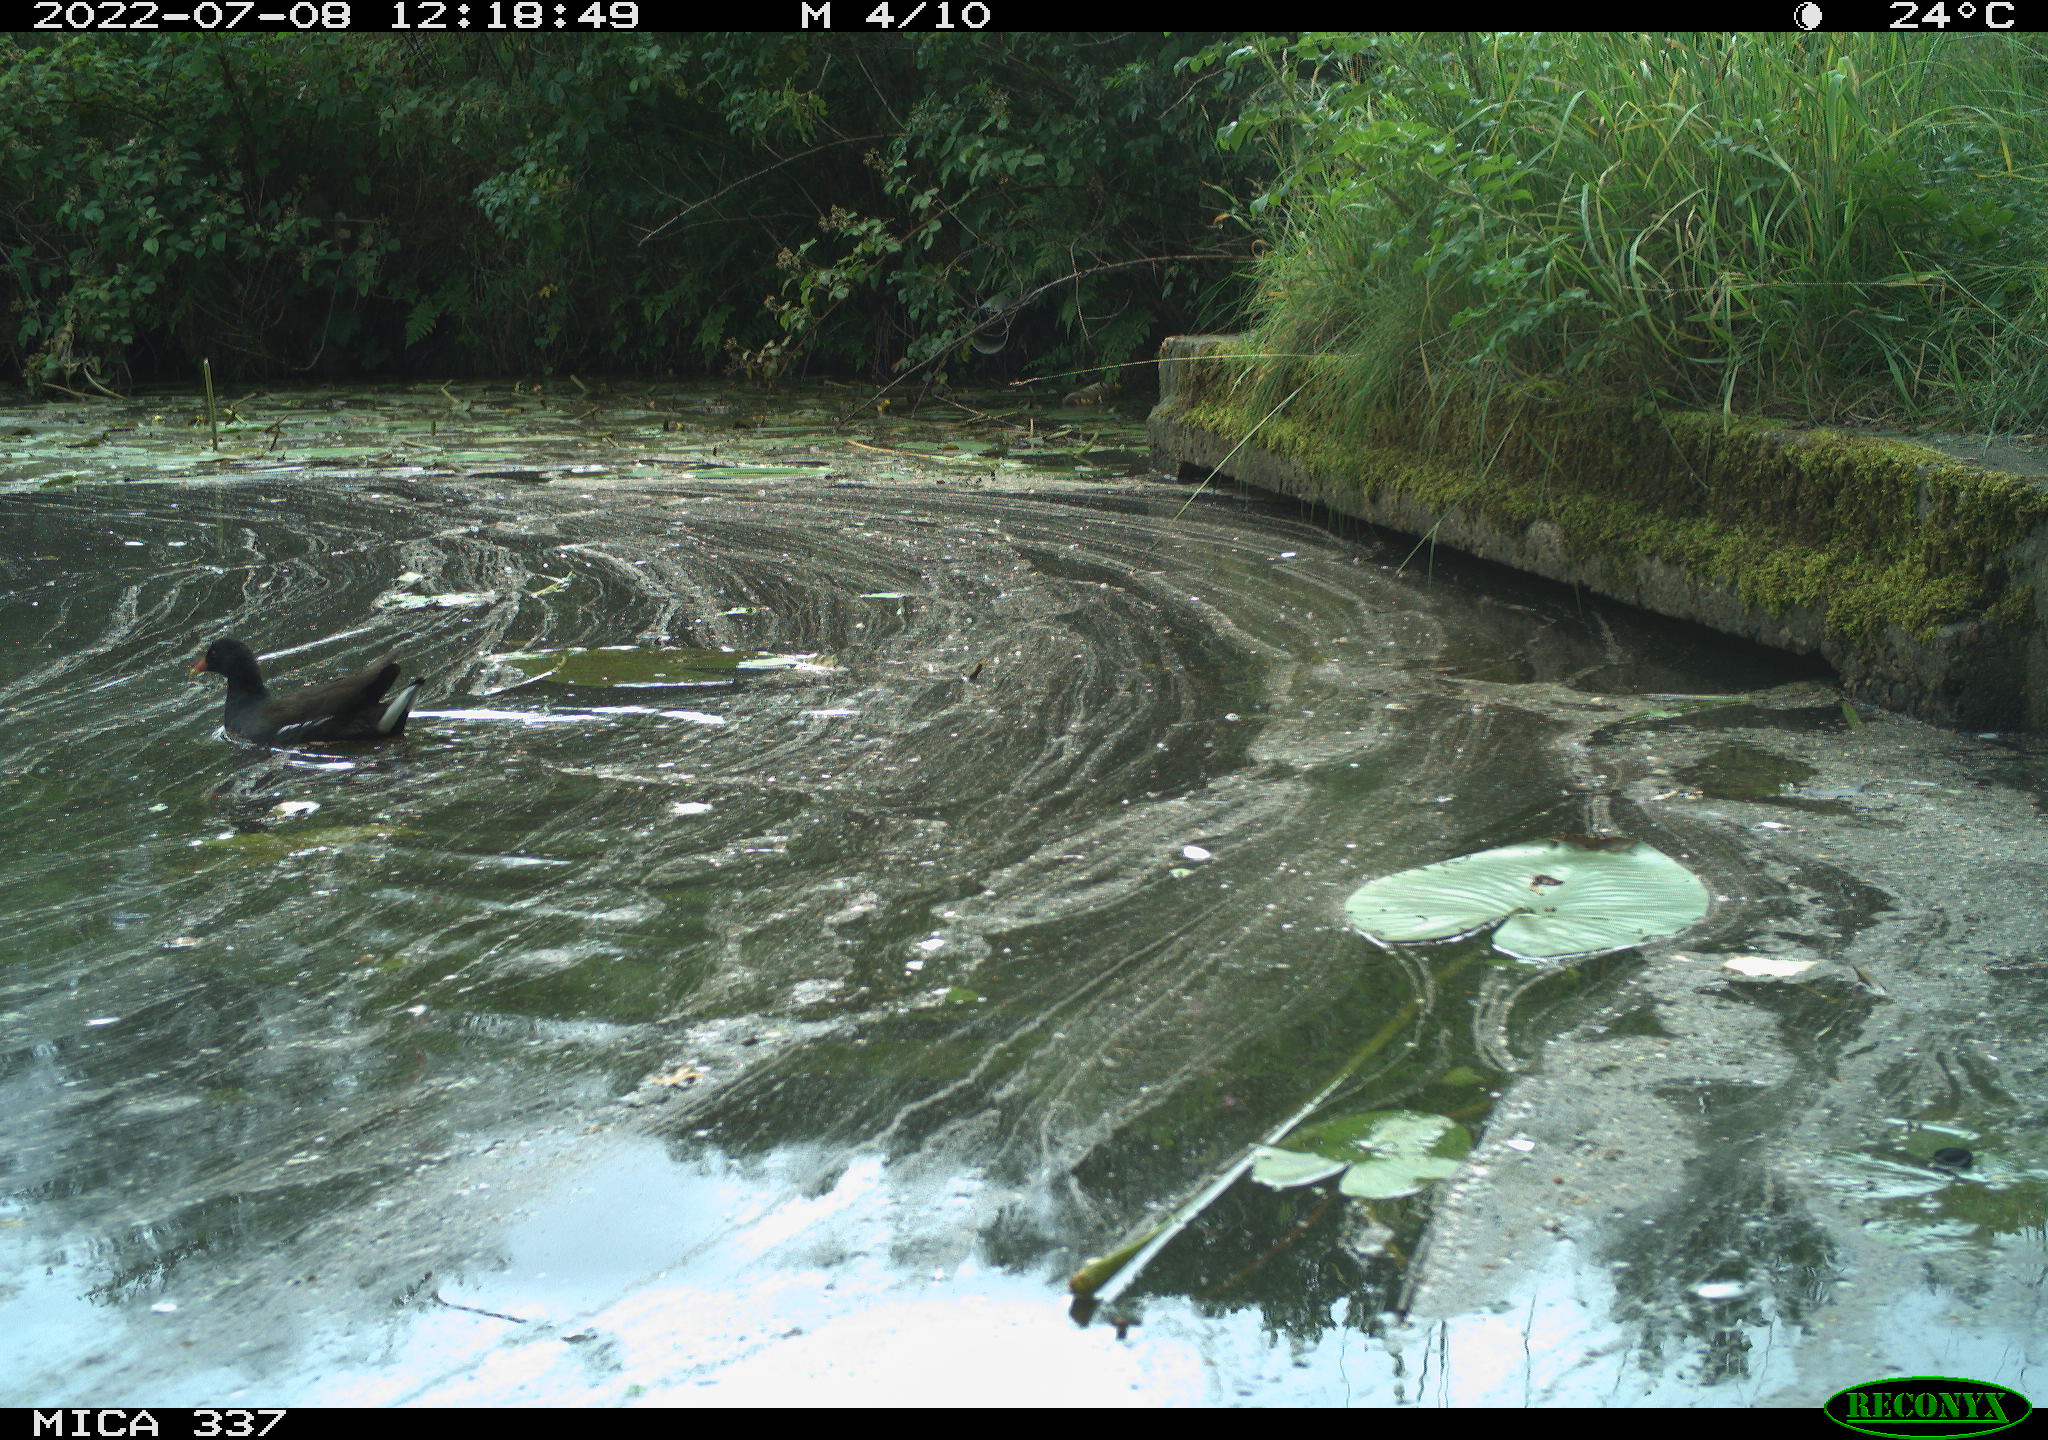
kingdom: Animalia
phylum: Chordata
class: Aves
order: Gruiformes
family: Rallidae
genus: Gallinula
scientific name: Gallinula chloropus
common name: Common moorhen
